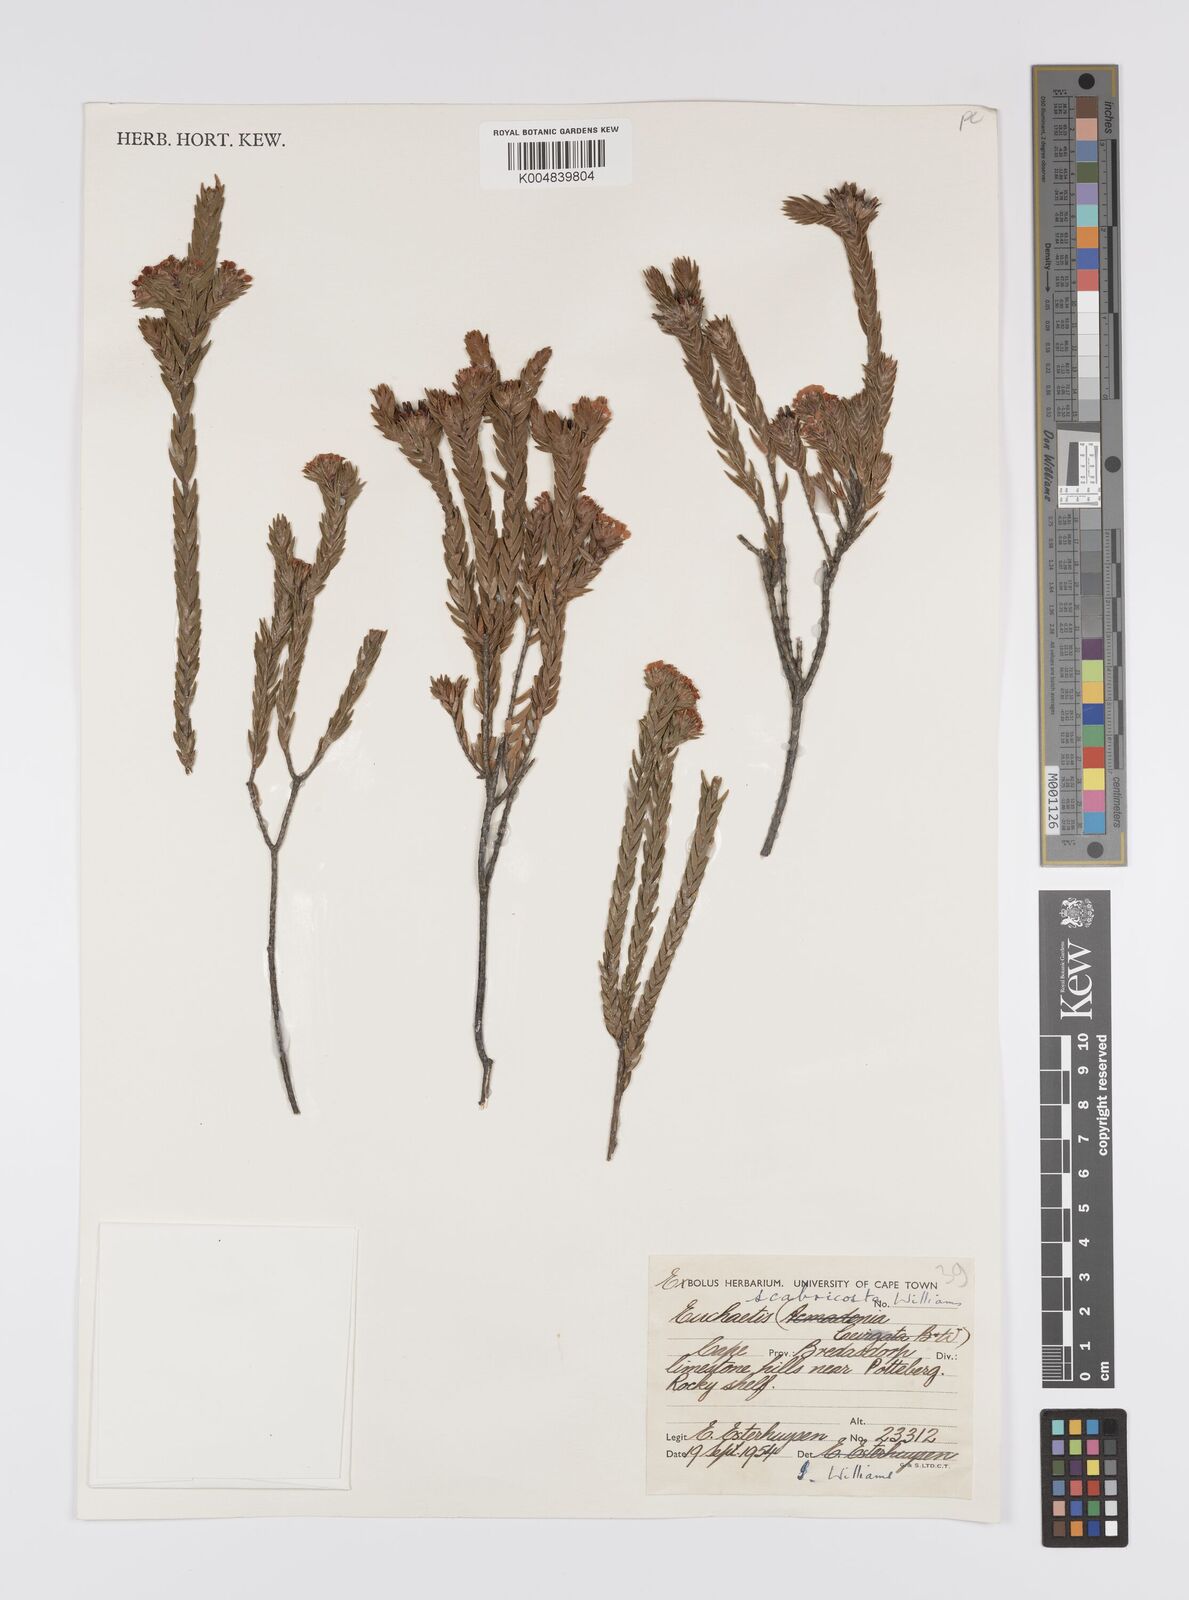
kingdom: Plantae
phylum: Tracheophyta
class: Magnoliopsida
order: Sapindales
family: Rutaceae
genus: Euchaetis
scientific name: Euchaetis scabricosta
